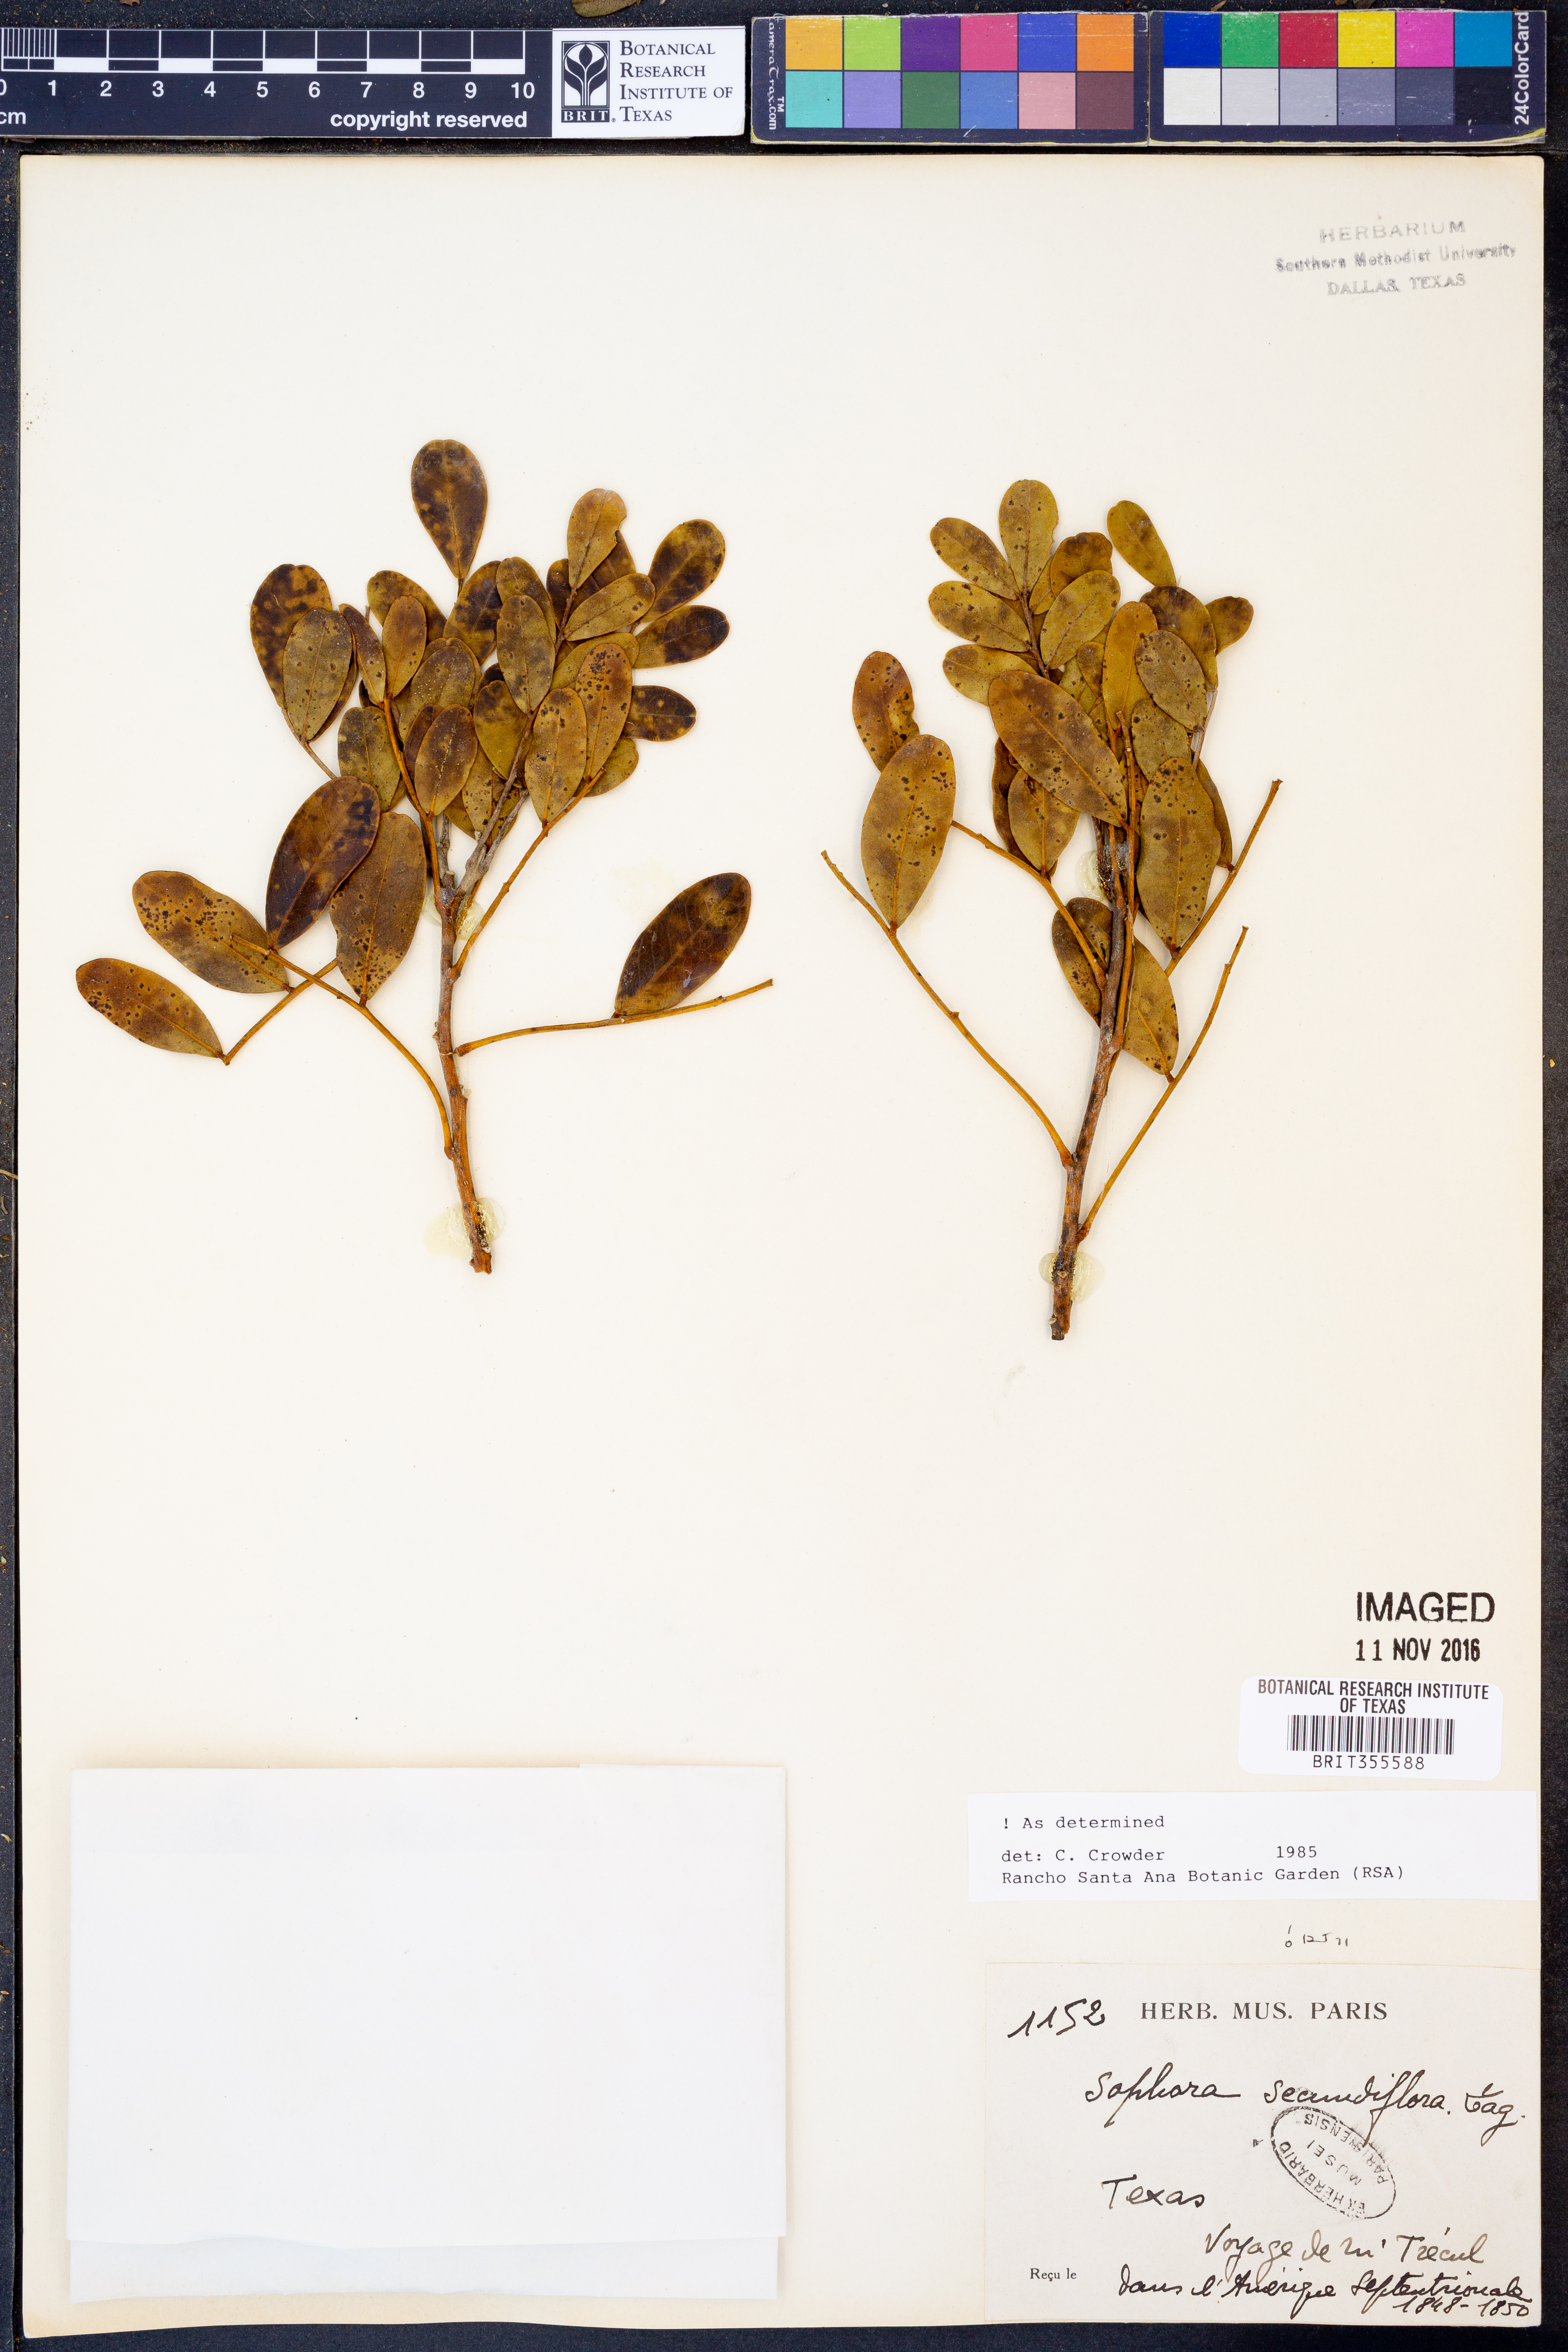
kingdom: Plantae
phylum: Tracheophyta
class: Magnoliopsida
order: Fabales
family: Fabaceae
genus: Dermatophyllum
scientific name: Dermatophyllum secundiflorum
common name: Texas-mountain-laurel
